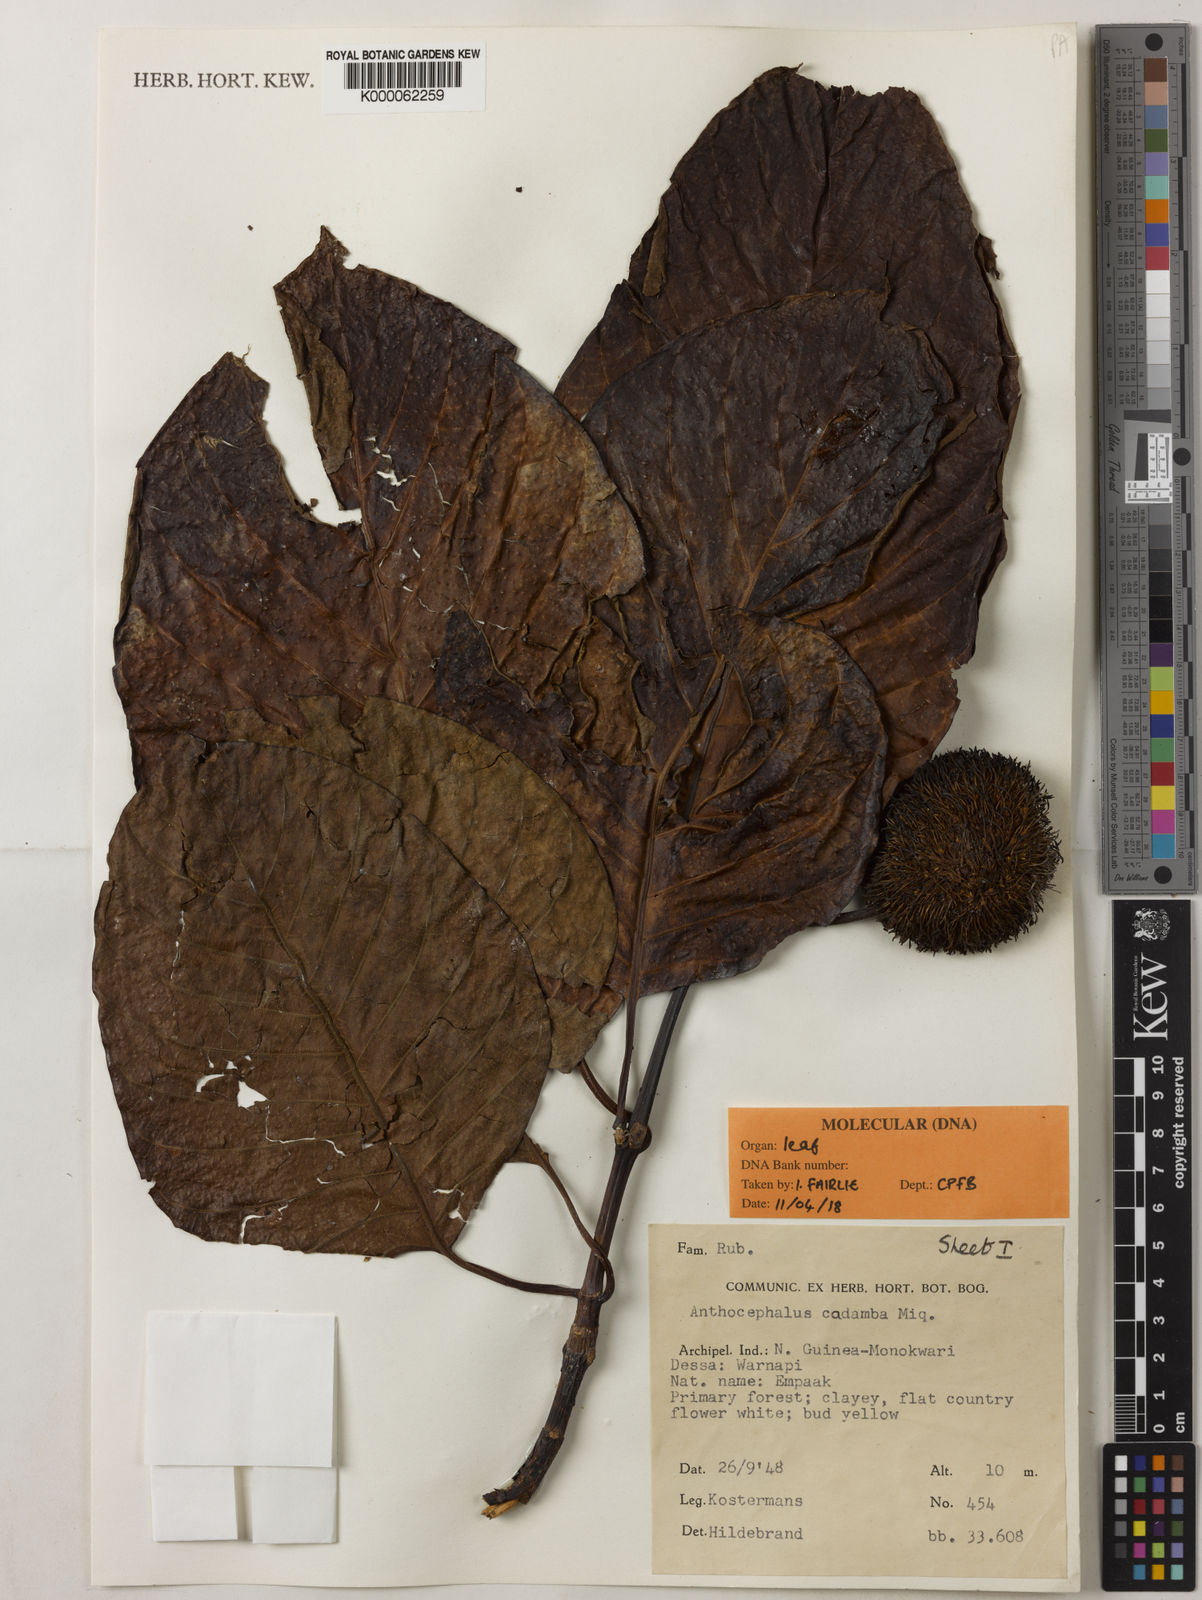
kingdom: Plantae
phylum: Tracheophyta
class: Magnoliopsida
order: Gentianales
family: Rubiaceae
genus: Neolamarckia
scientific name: Neolamarckia cadamba
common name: Leichhardt-pine
